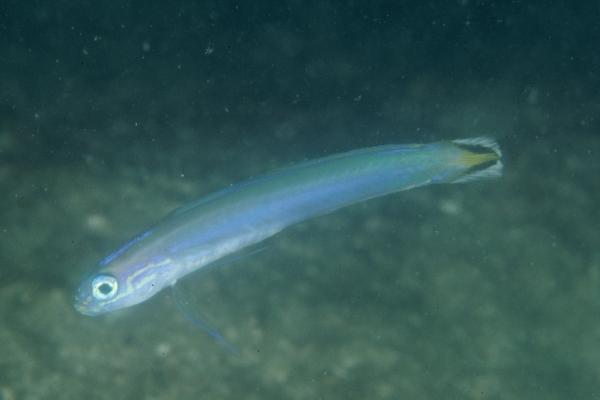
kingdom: Animalia
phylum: Chordata
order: Perciformes
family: Microdesmidae
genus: Ptereleotris
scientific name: Ptereleotris uroditaenia
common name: Flag-tail dart-goby
